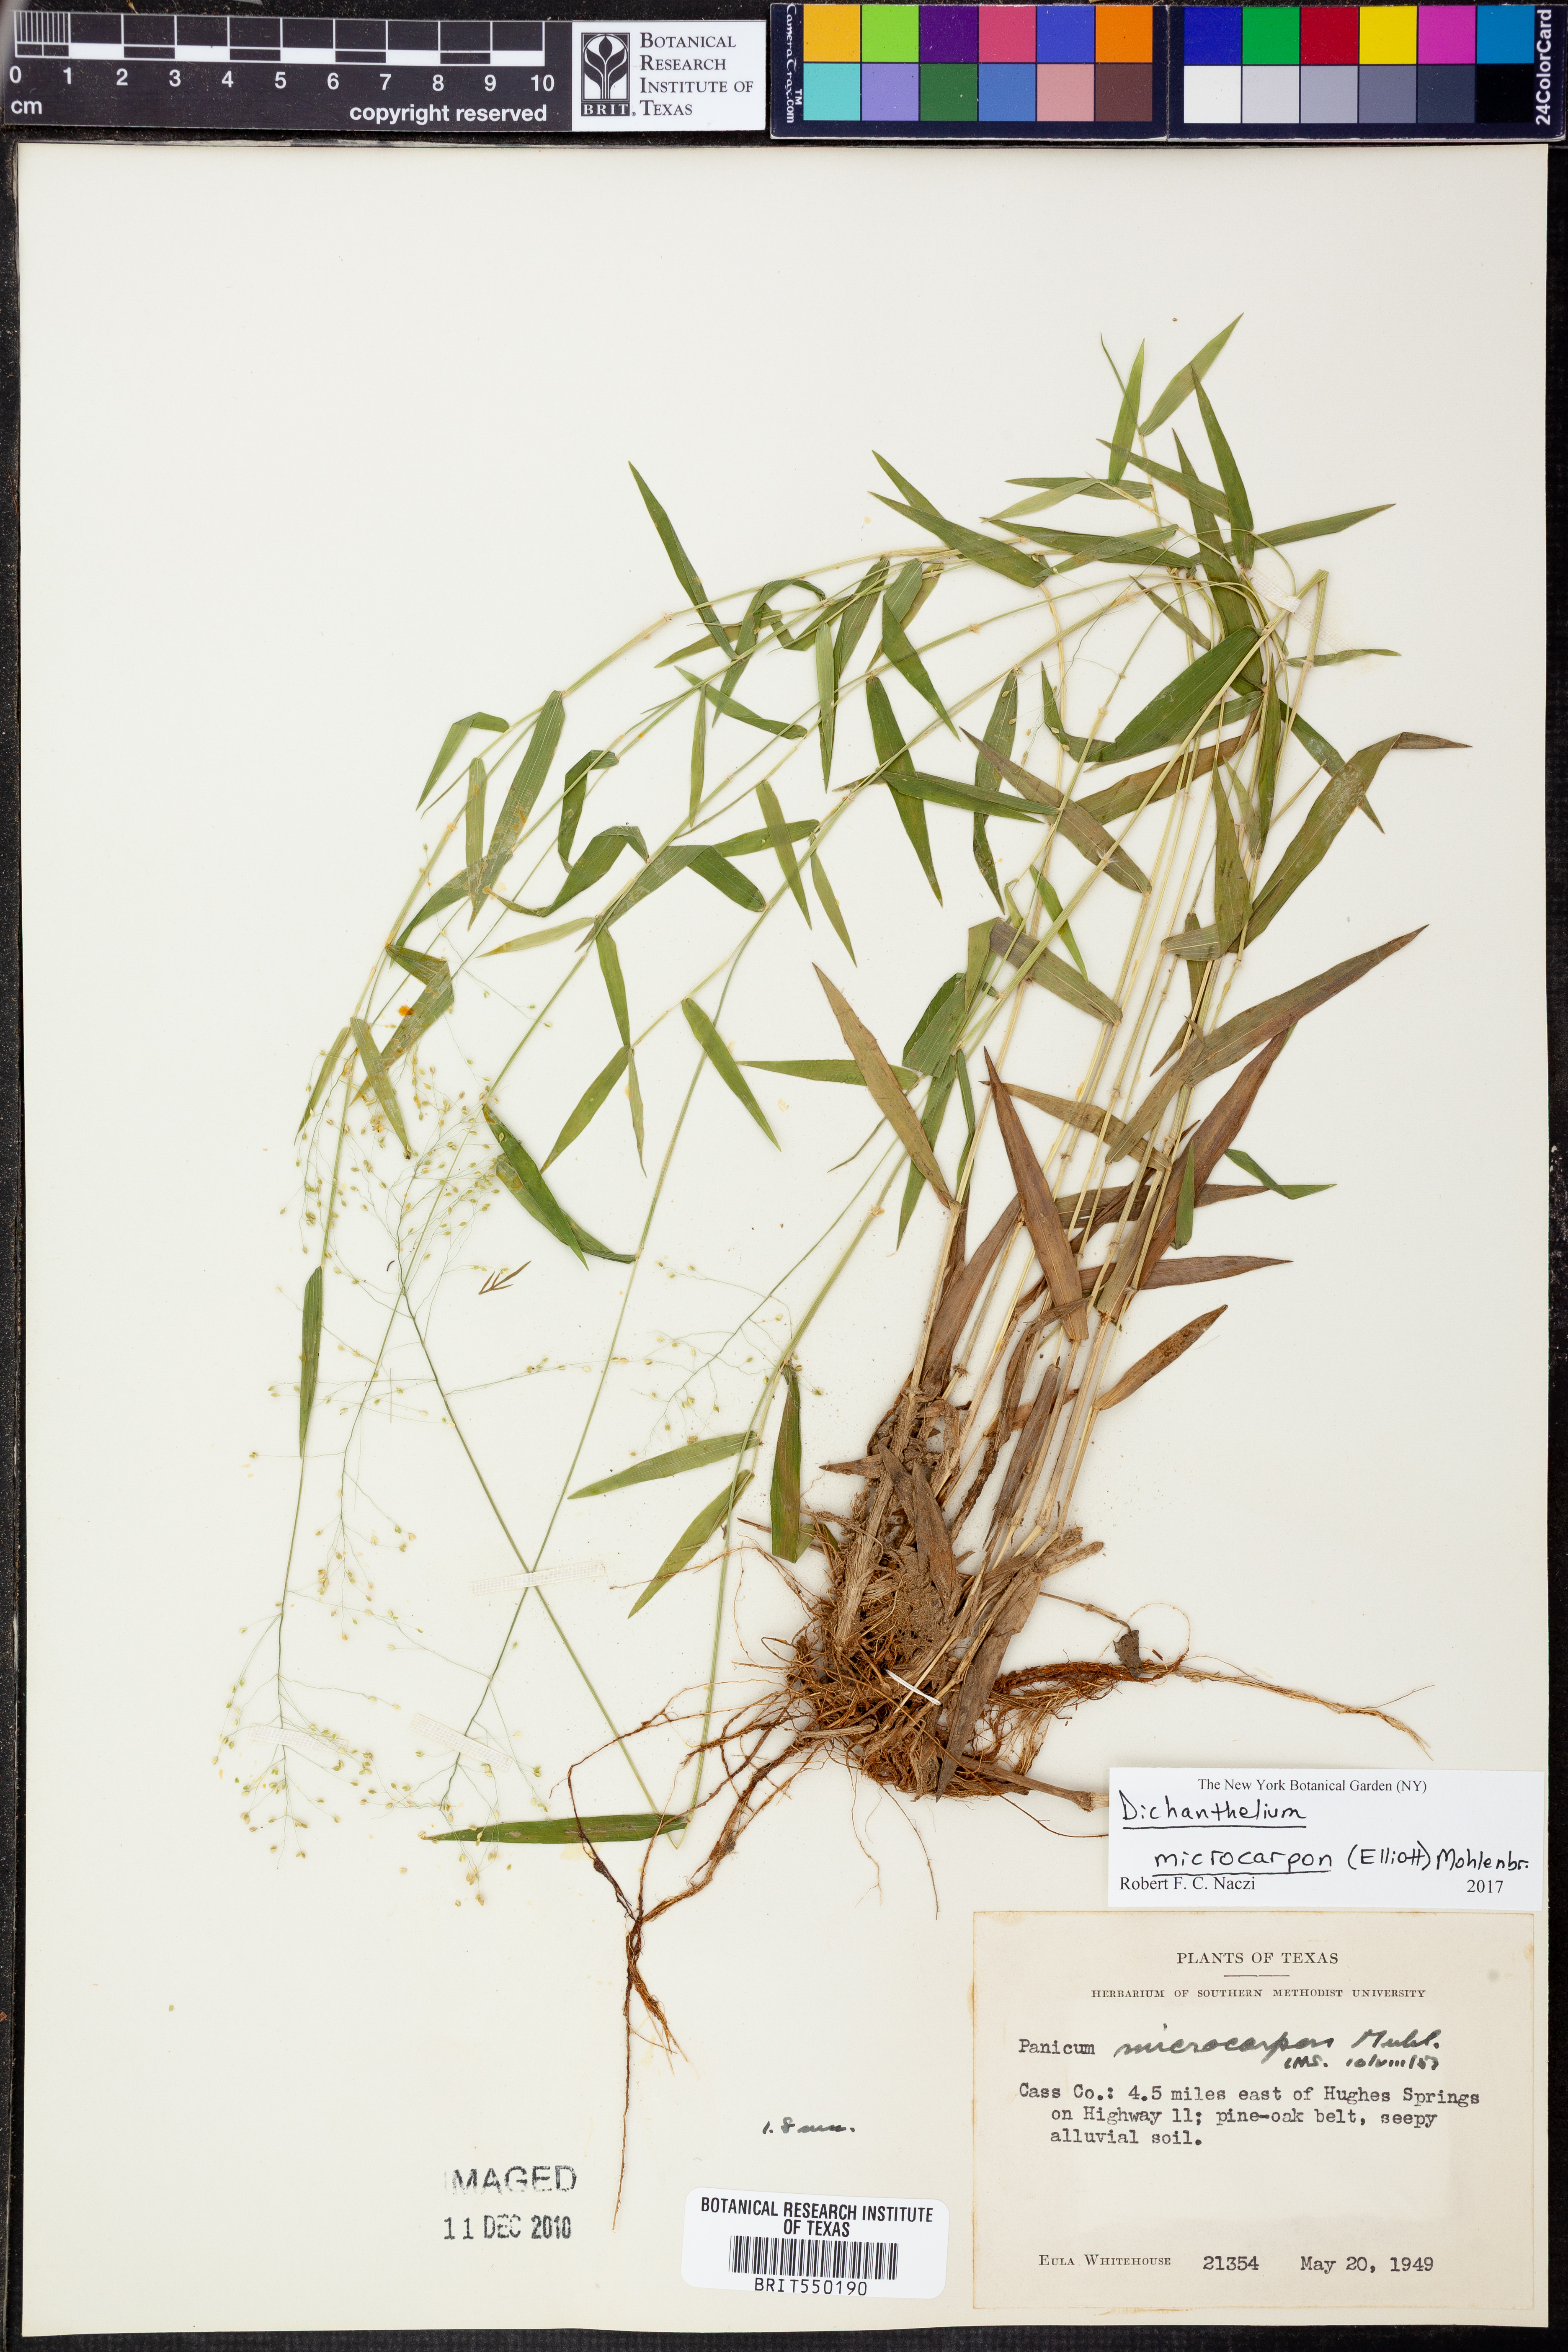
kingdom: Plantae
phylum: Tracheophyta
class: Liliopsida
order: Poales
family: Poaceae
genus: Dichanthelium
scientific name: Dichanthelium microcarpon
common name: Small-fruited witchgrass
